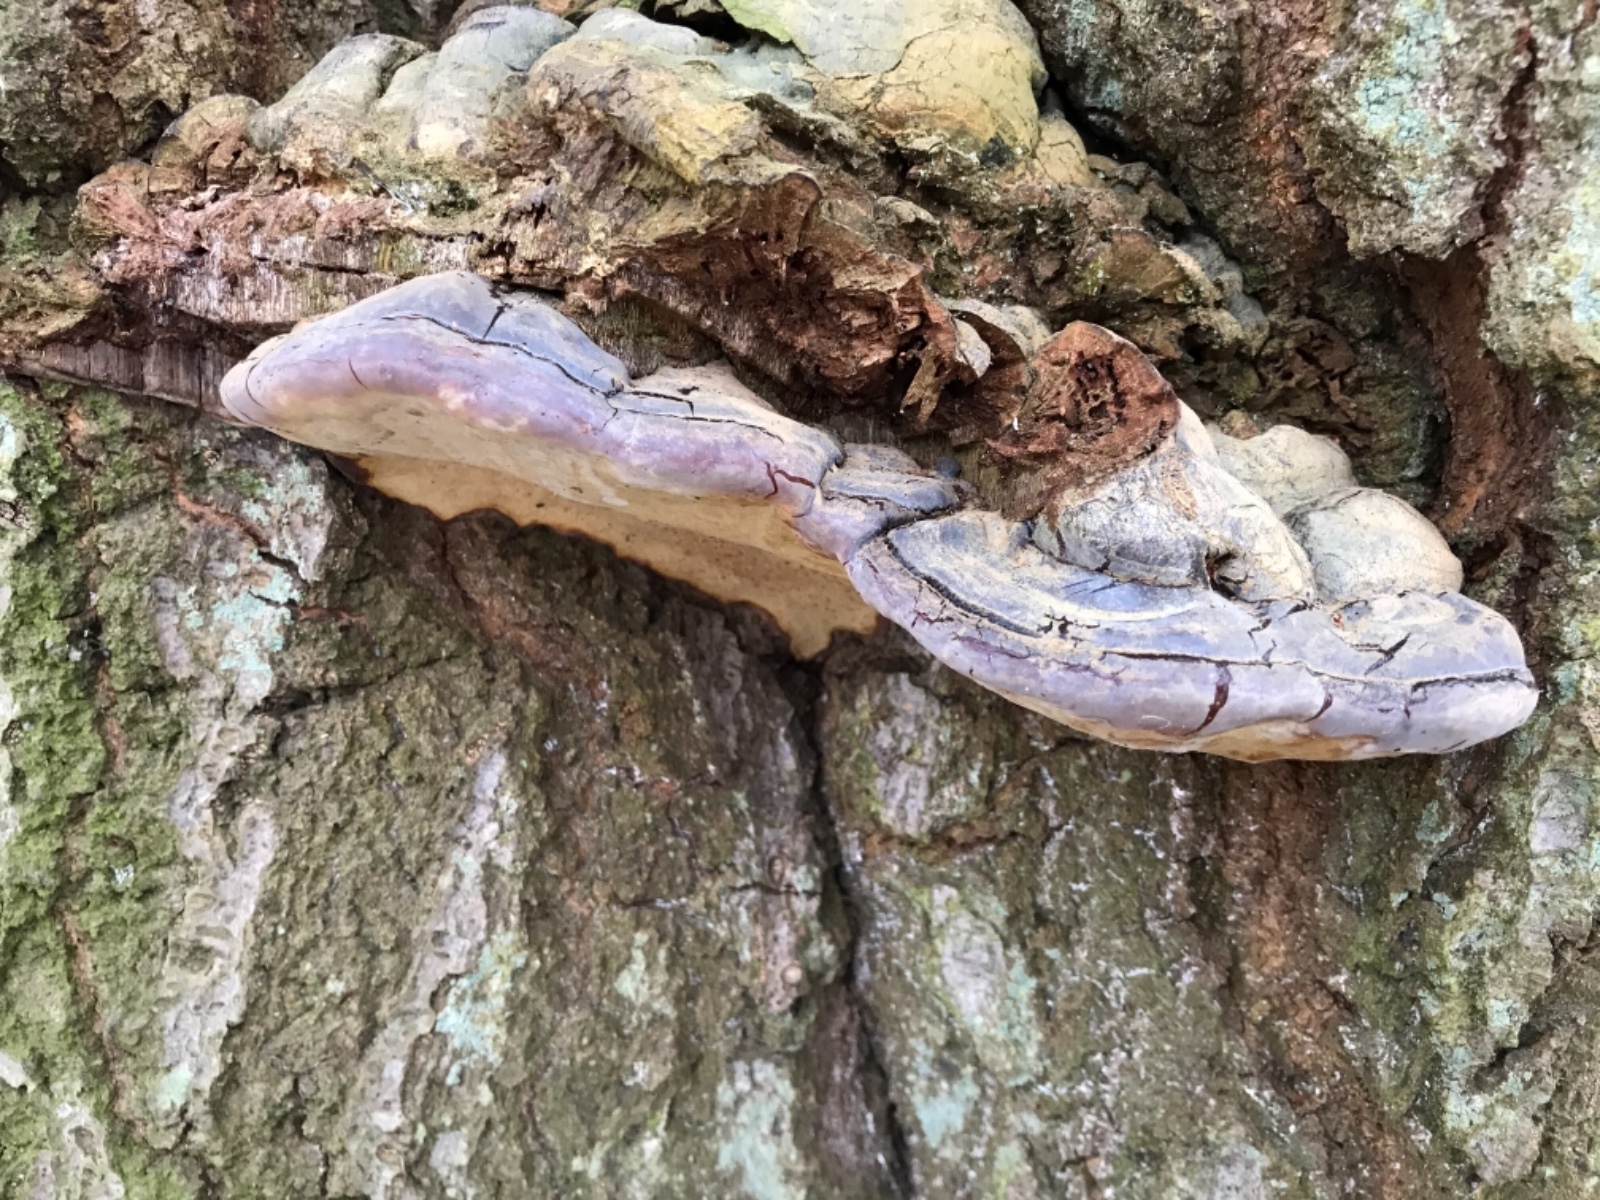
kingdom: Fungi
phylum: Basidiomycota
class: Agaricomycetes
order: Polyporales
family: Polyporaceae
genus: Ganoderma
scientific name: Ganoderma pfeifferi
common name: kobberrød lakporesvamp
